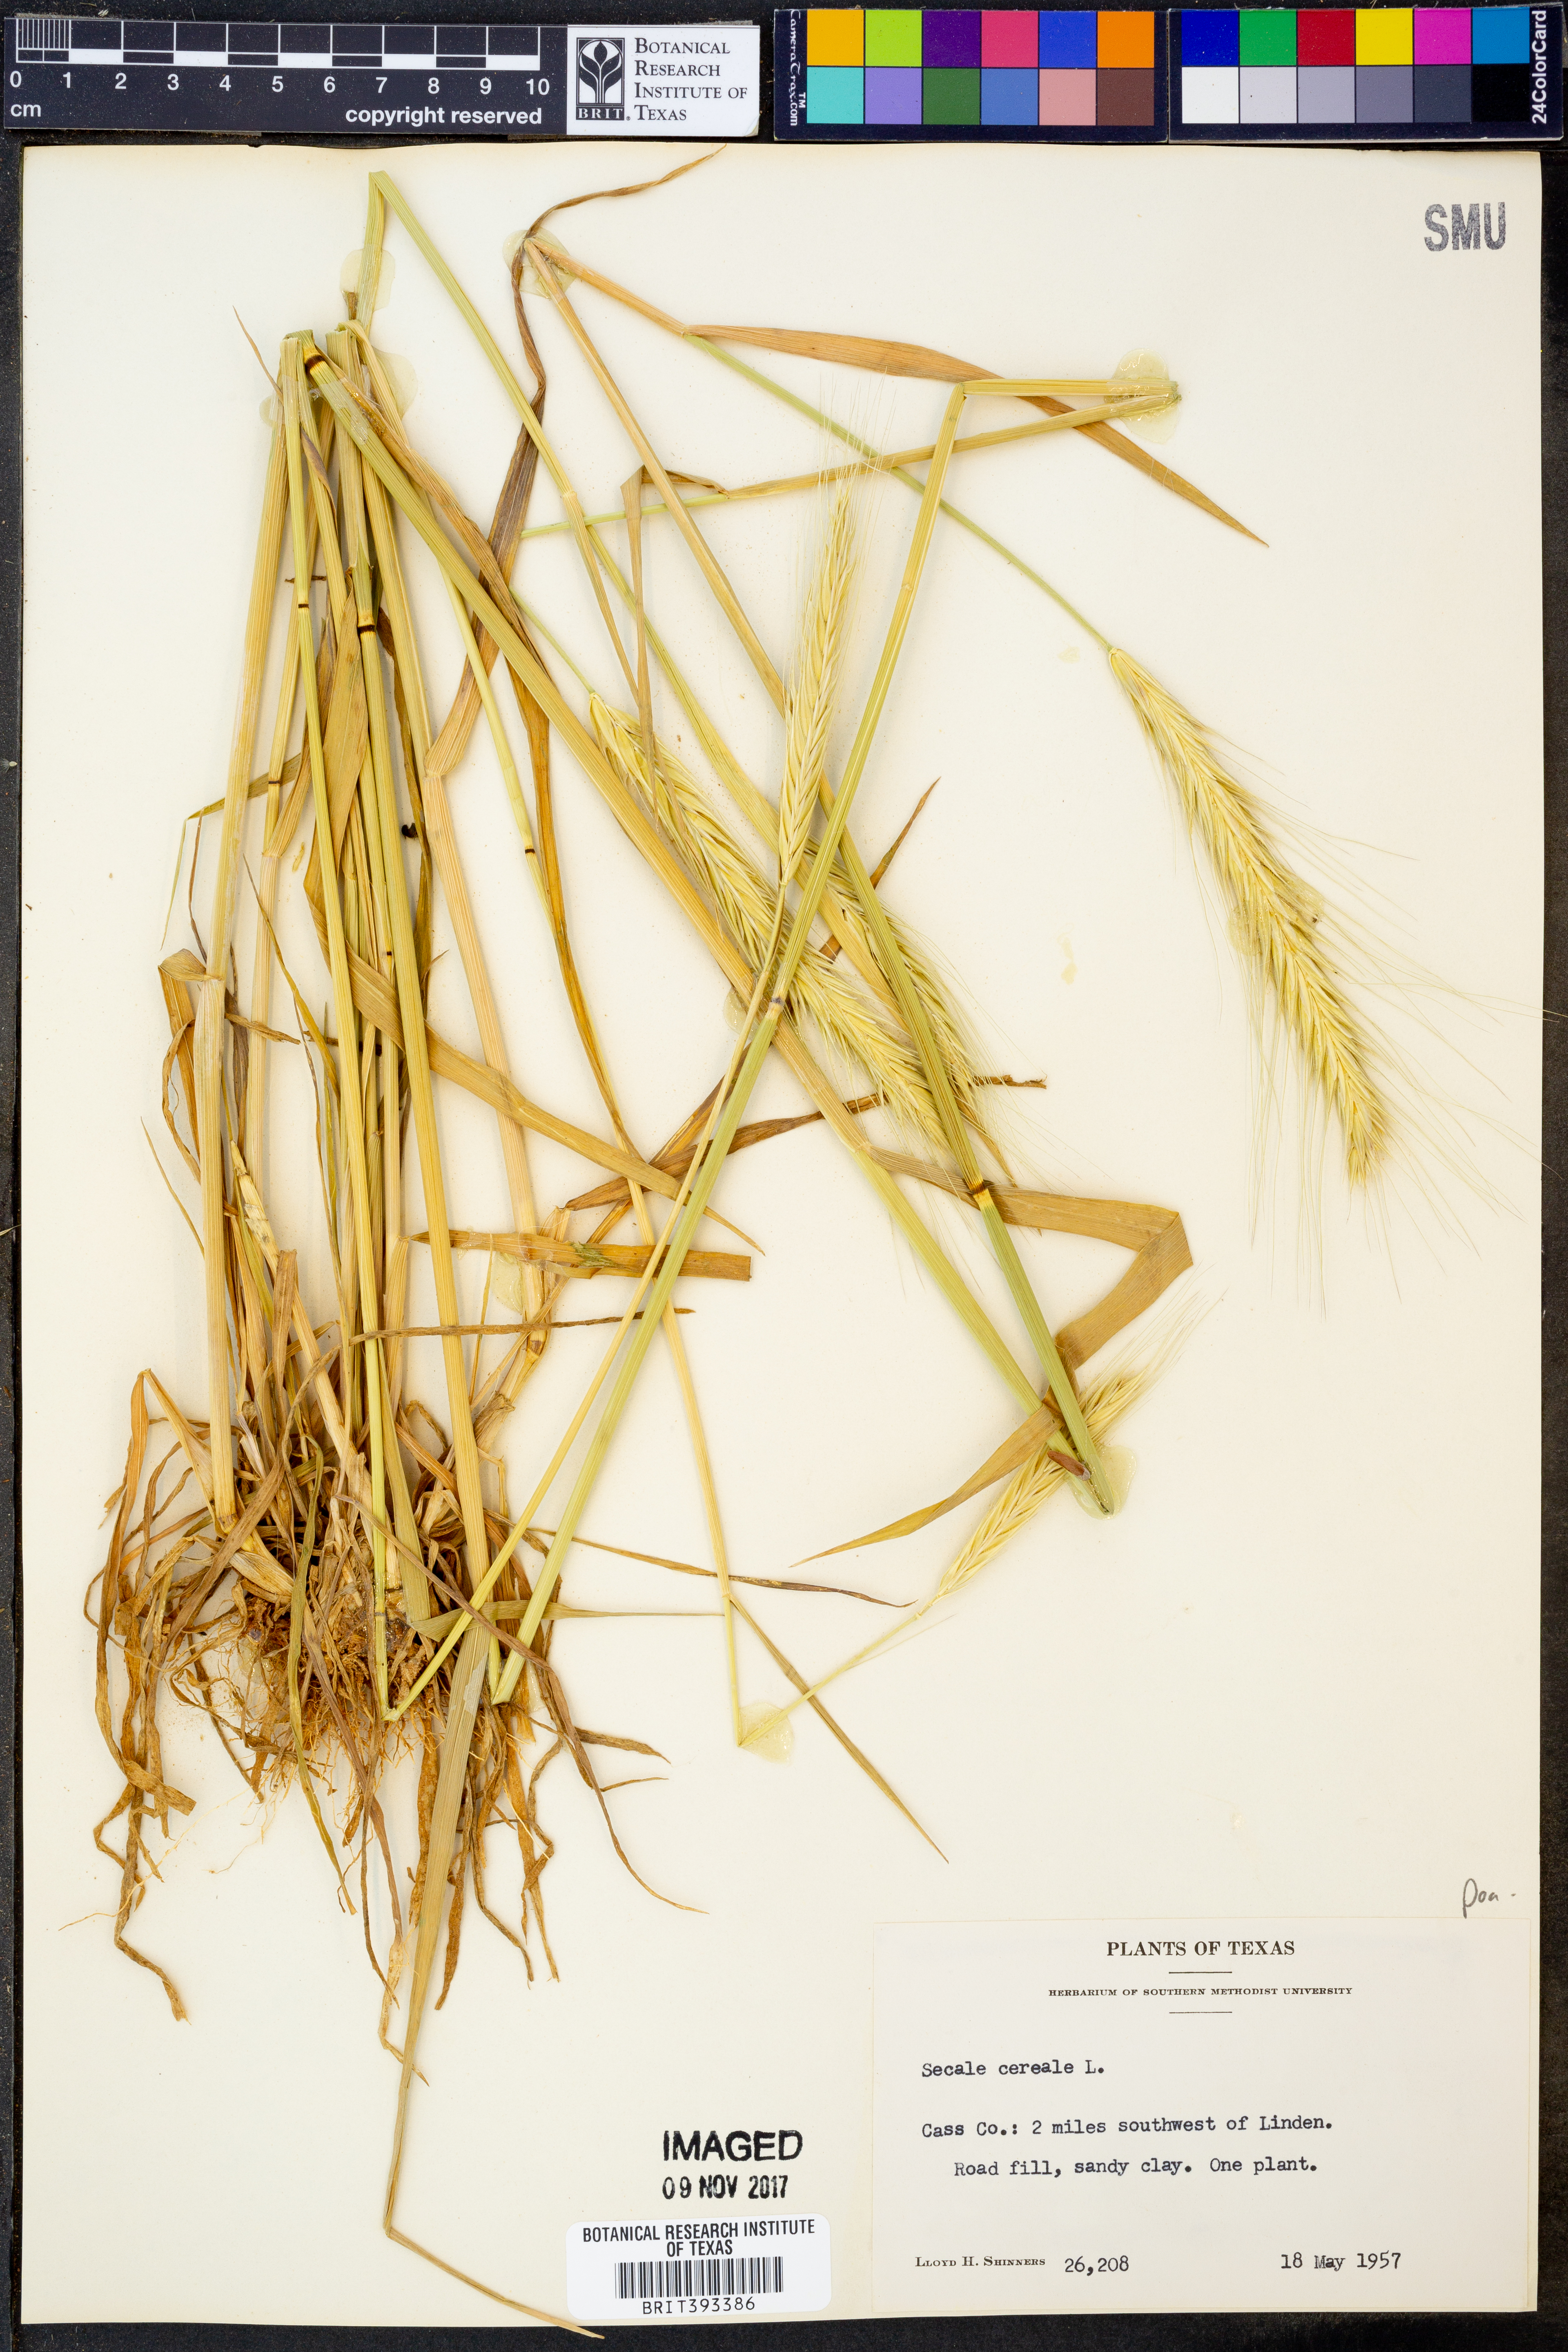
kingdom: Plantae
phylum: Tracheophyta
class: Liliopsida
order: Poales
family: Poaceae
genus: Secale
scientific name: Secale cereale
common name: Rye
